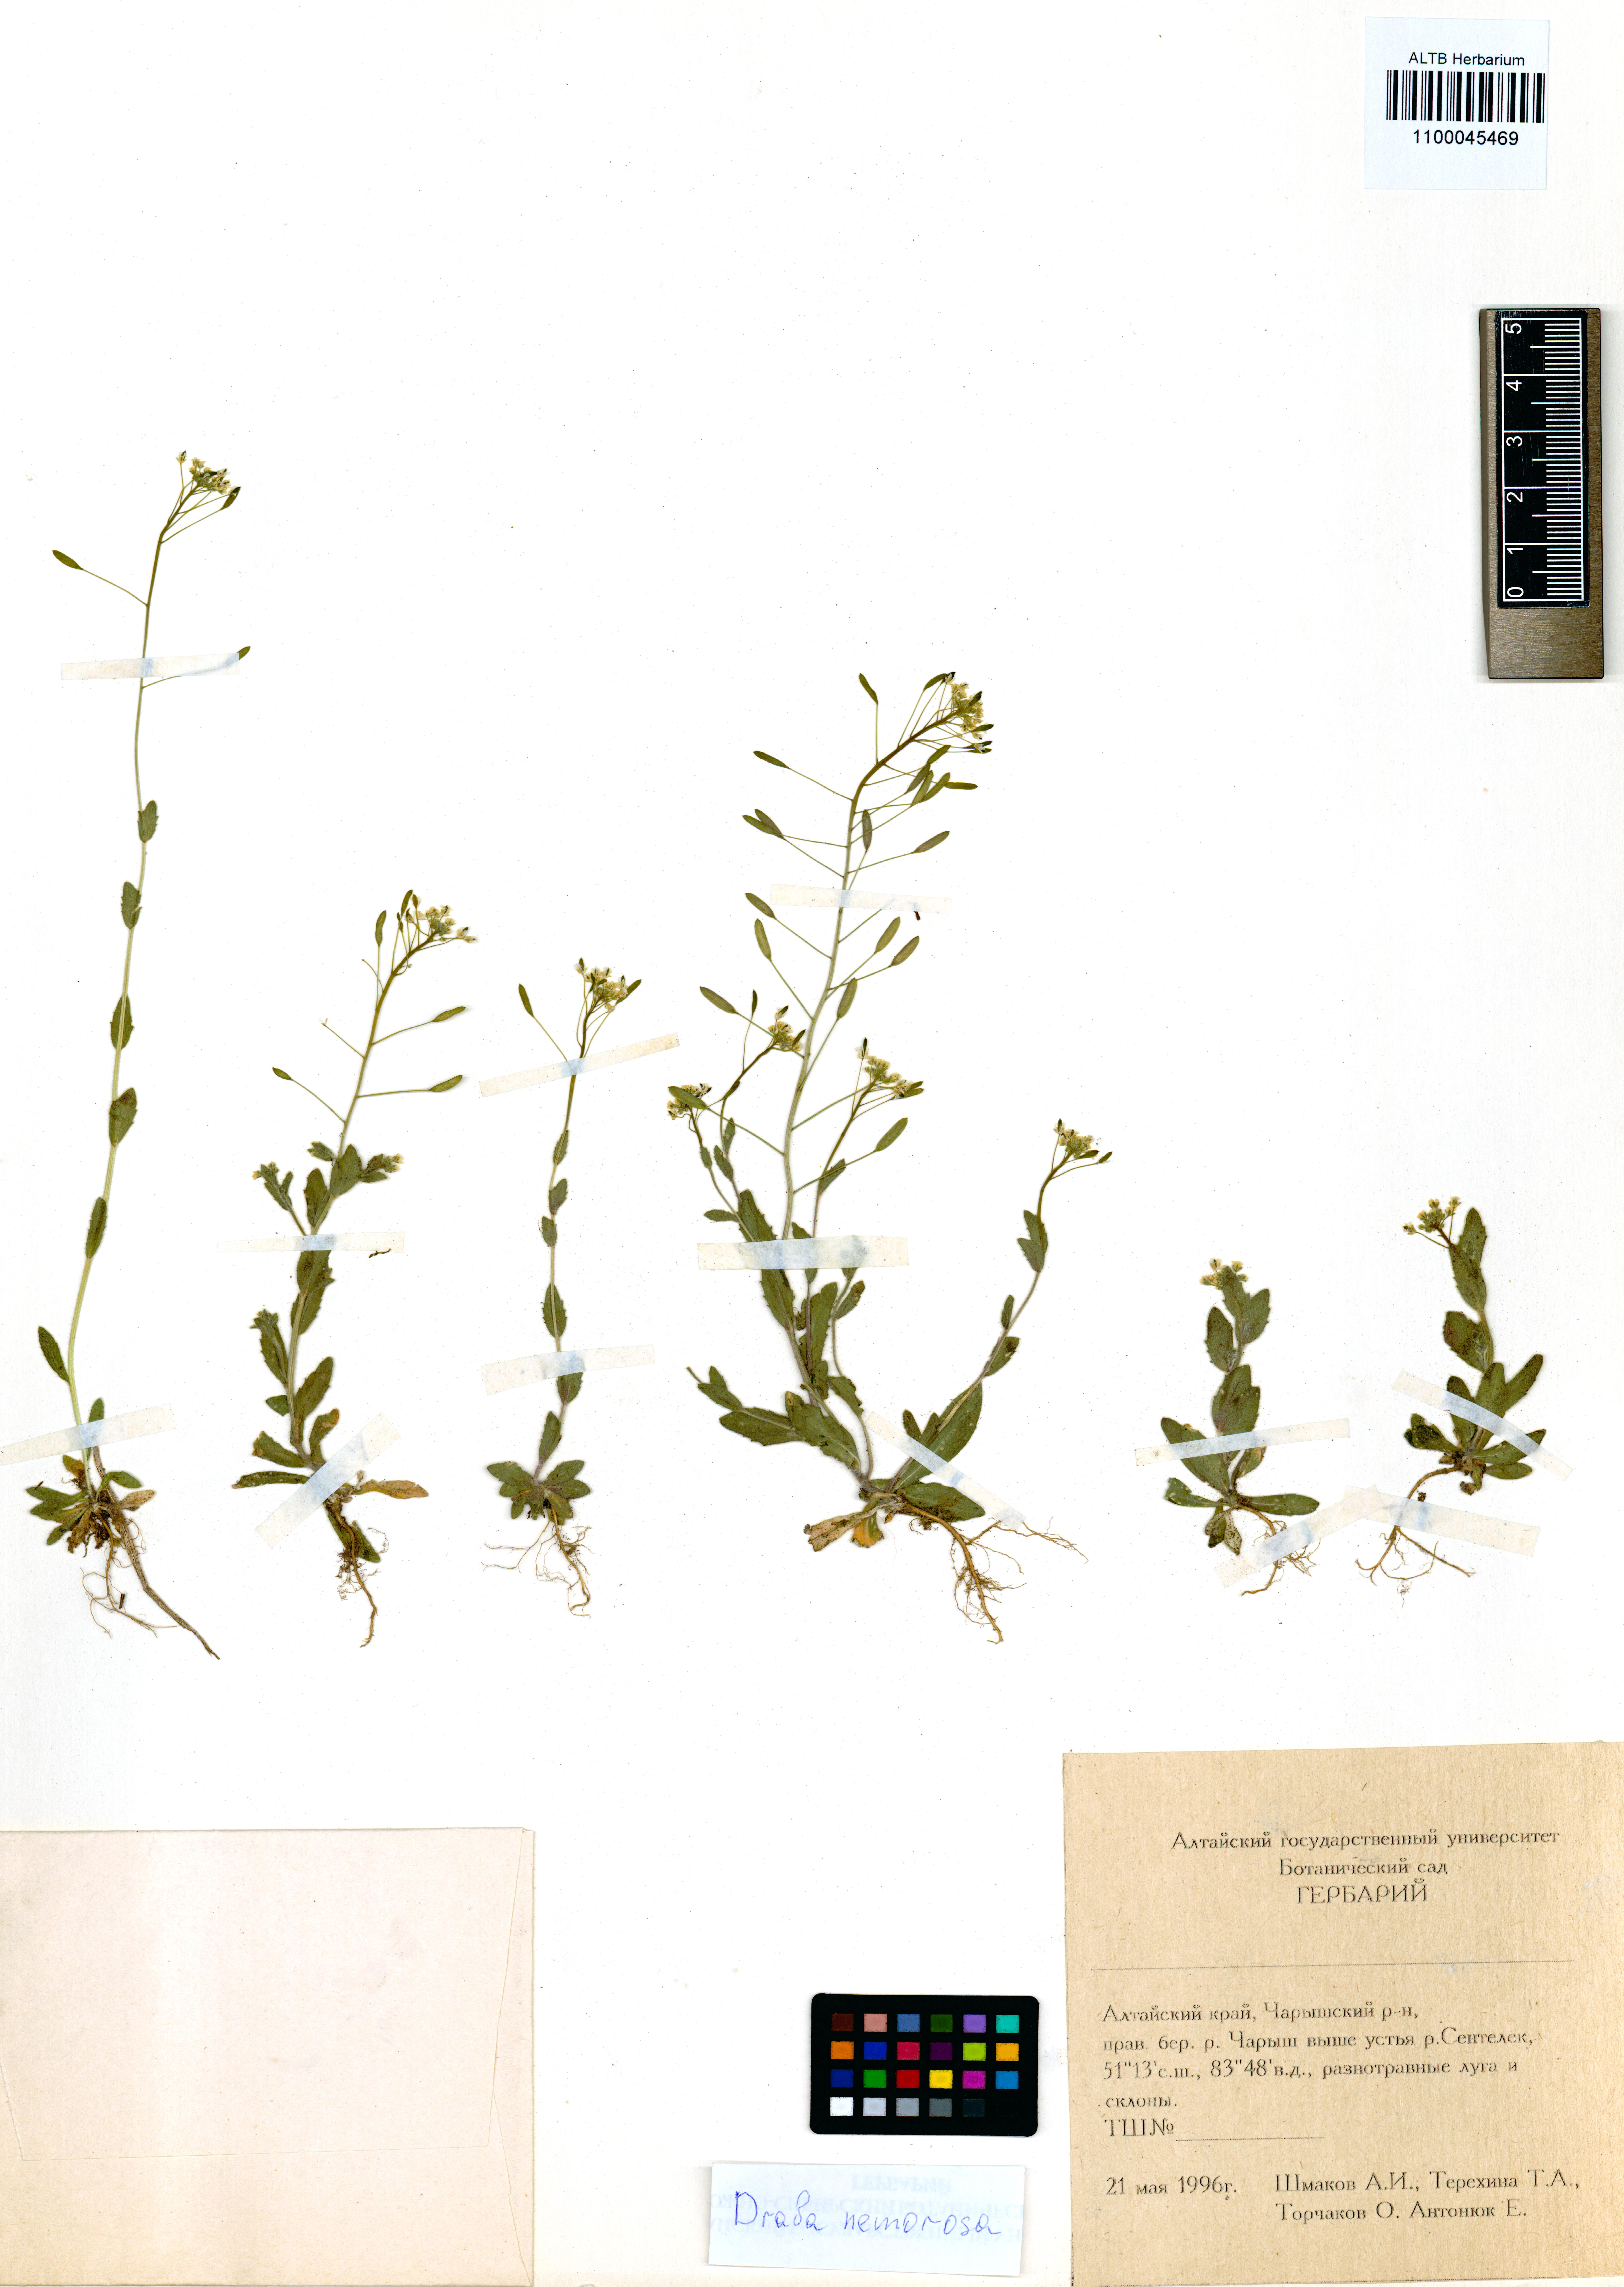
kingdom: Plantae
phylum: Tracheophyta
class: Magnoliopsida
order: Brassicales
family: Brassicaceae
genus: Draba
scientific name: Draba nemorosa
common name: Wood whitlow-grass
